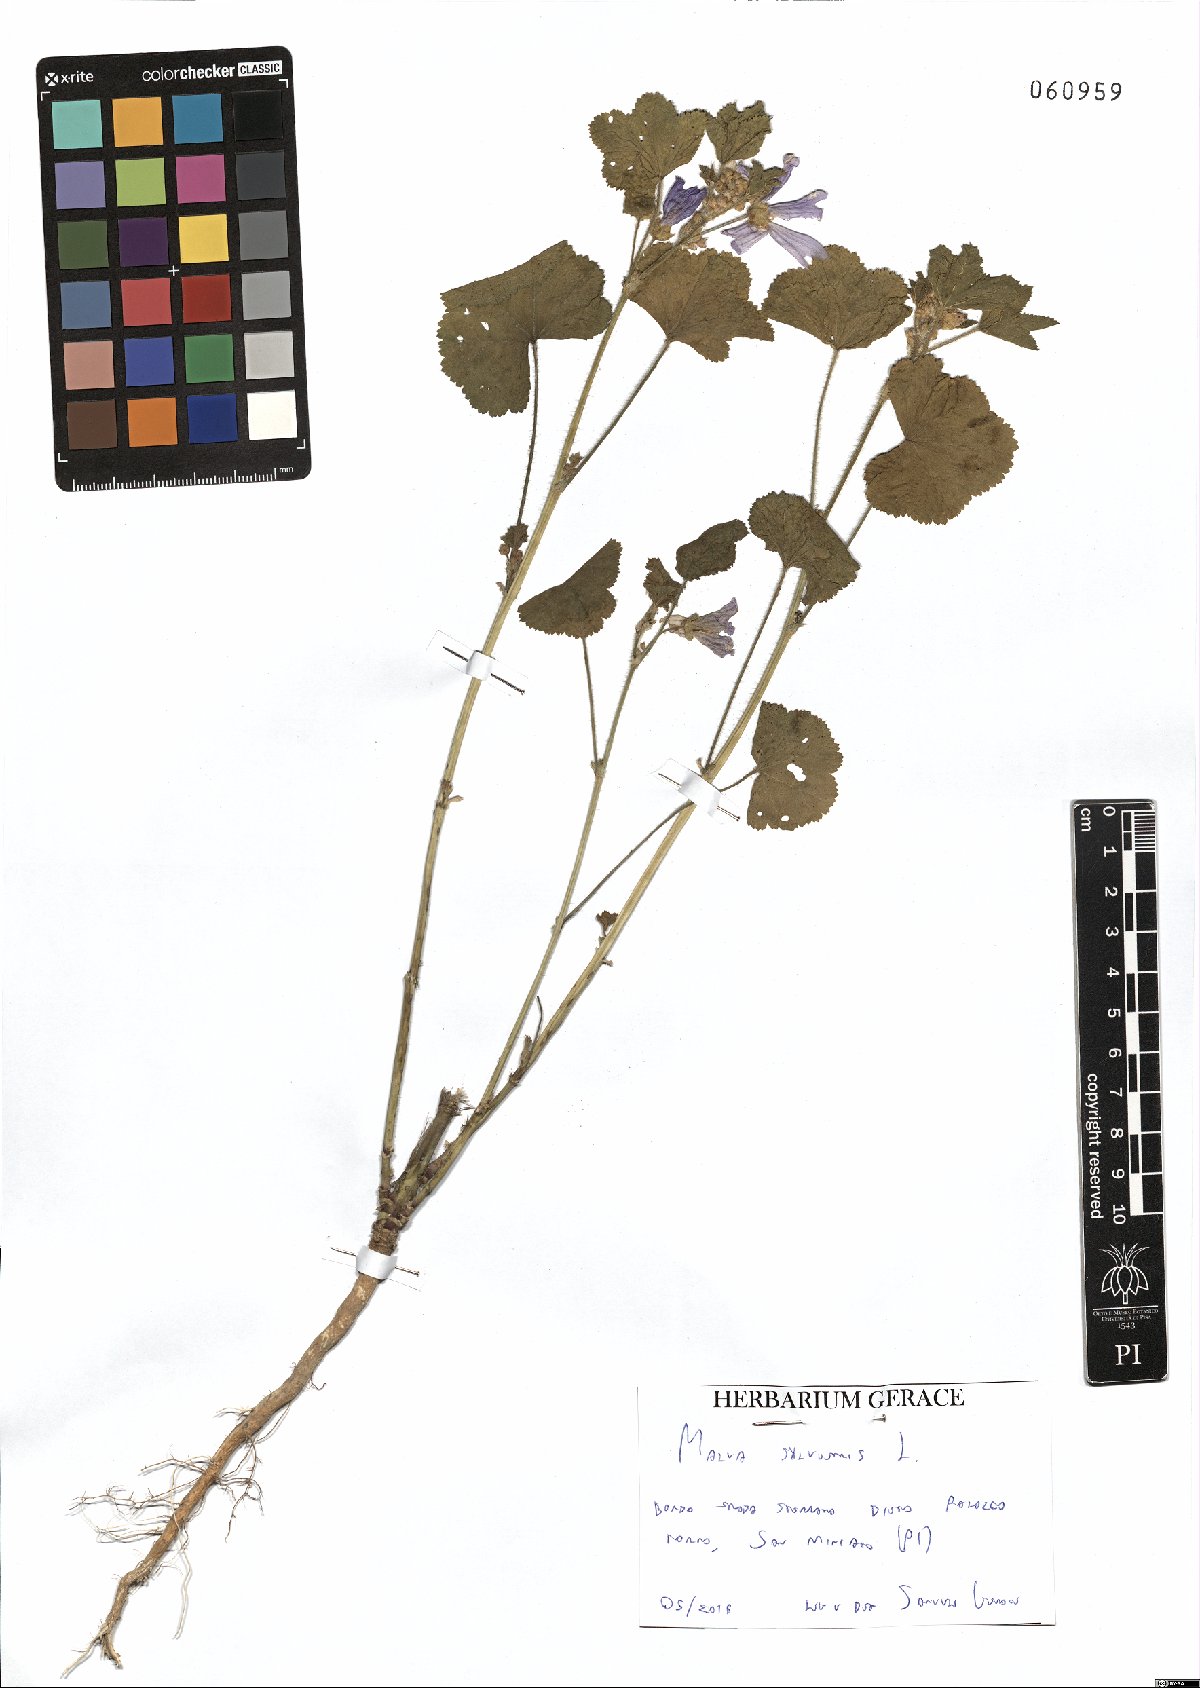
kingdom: Plantae
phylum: Tracheophyta
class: Magnoliopsida
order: Malvales
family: Malvaceae
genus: Malva
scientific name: Malva sylvestris
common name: Common mallow
